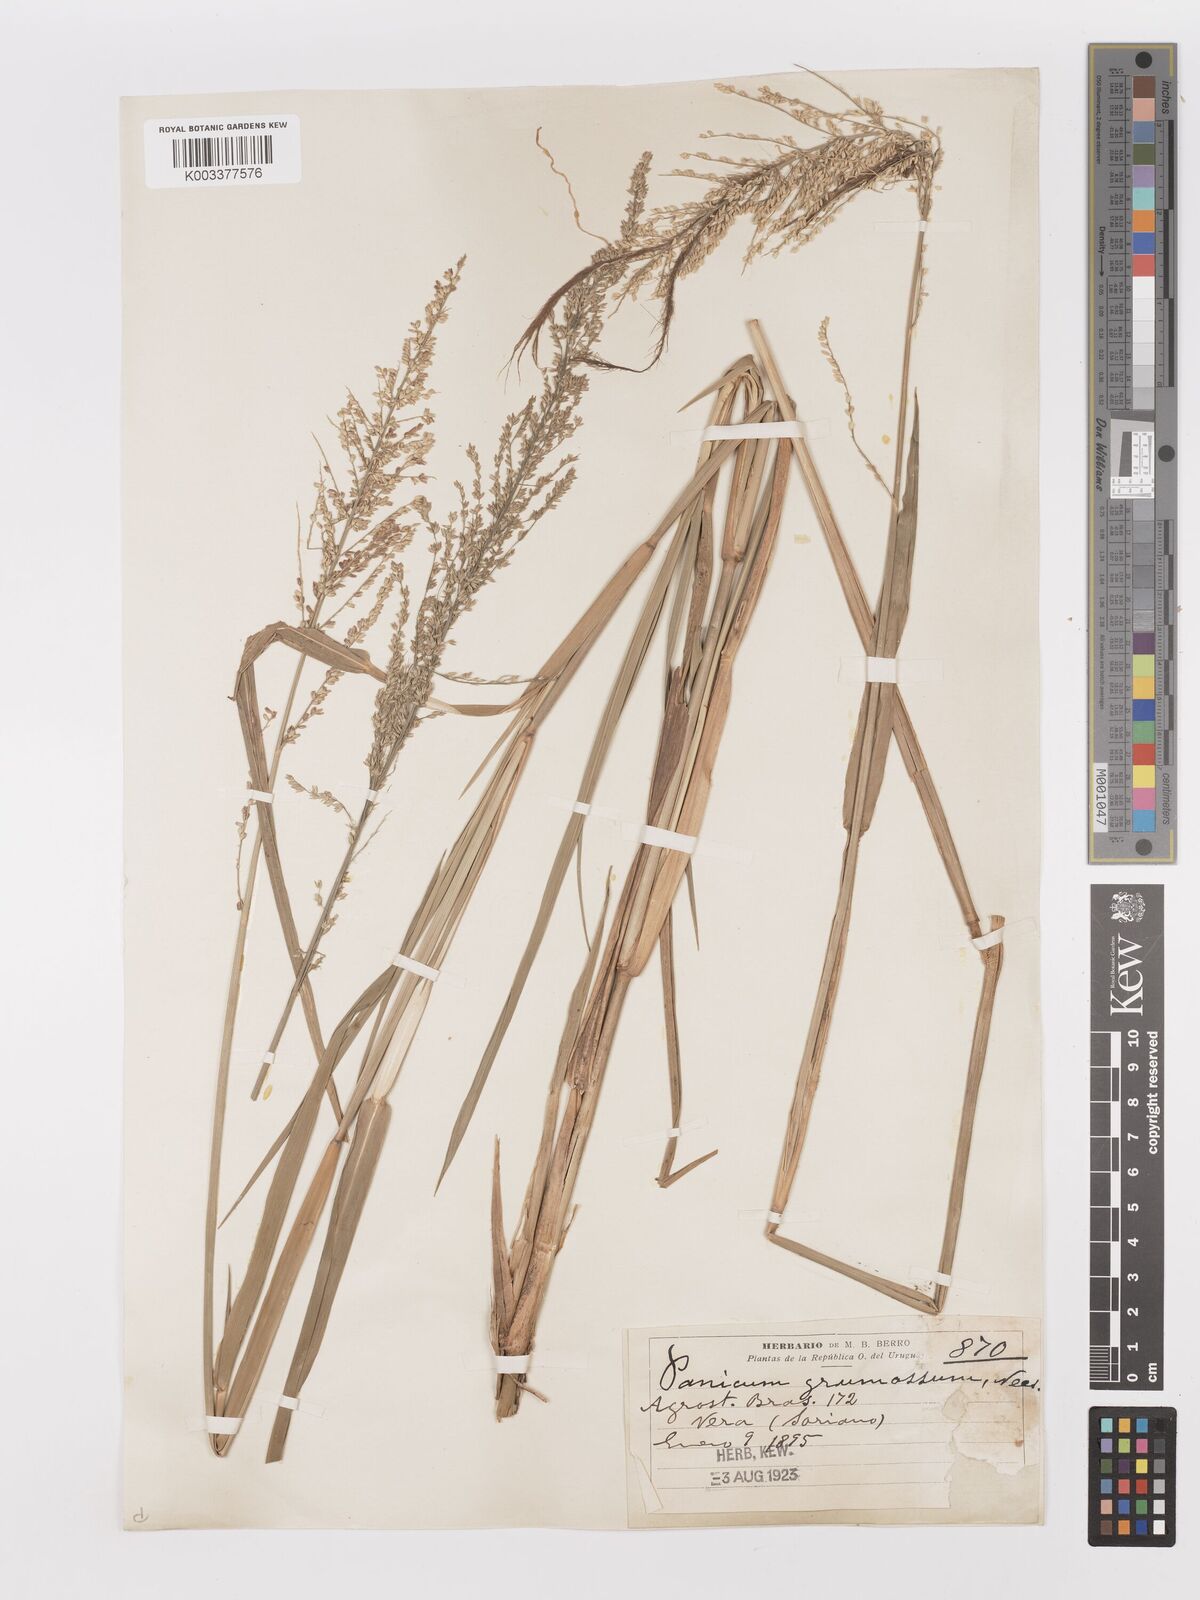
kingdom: Plantae
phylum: Tracheophyta
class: Liliopsida
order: Poales
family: Poaceae
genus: Urochloa
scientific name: Urochloa reptans
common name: Sprawling signalgrass
